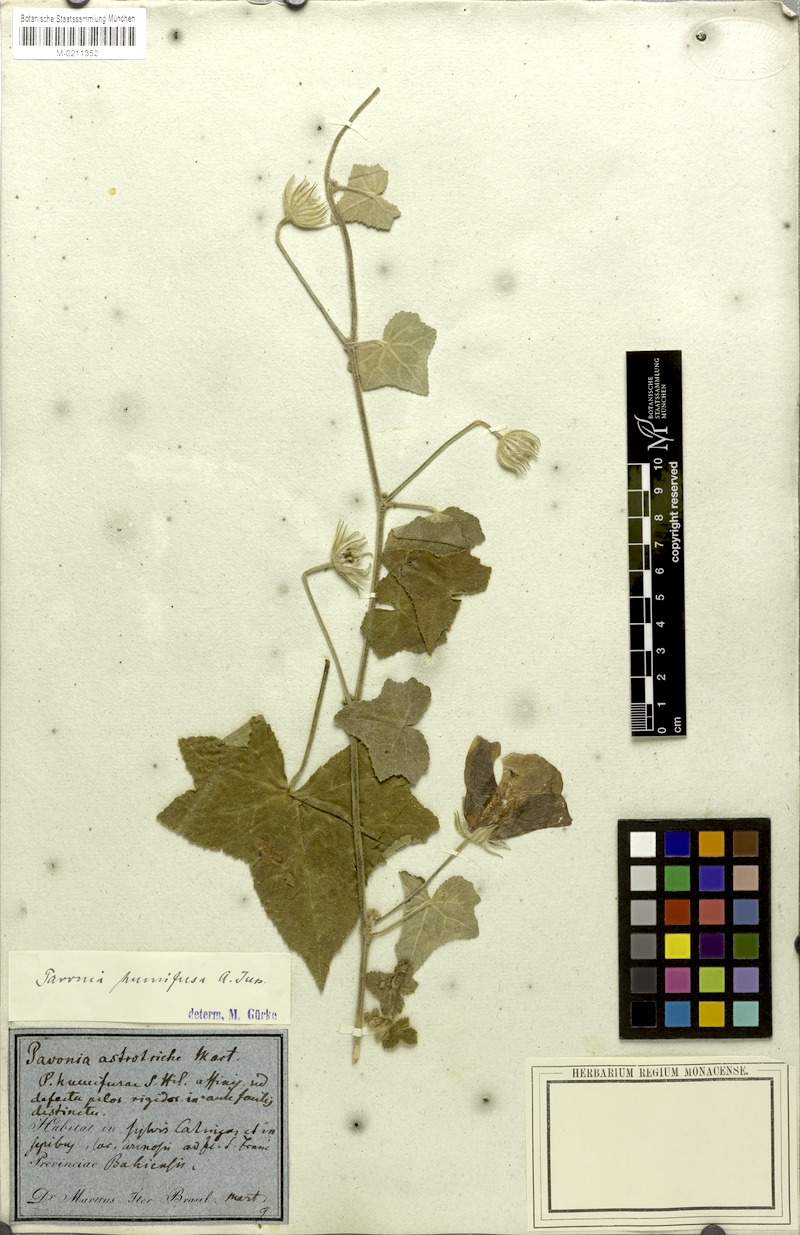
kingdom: Plantae
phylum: Tracheophyta
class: Magnoliopsida
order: Malvales
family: Malvaceae
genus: Pavonia
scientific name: Pavonia humifusa
